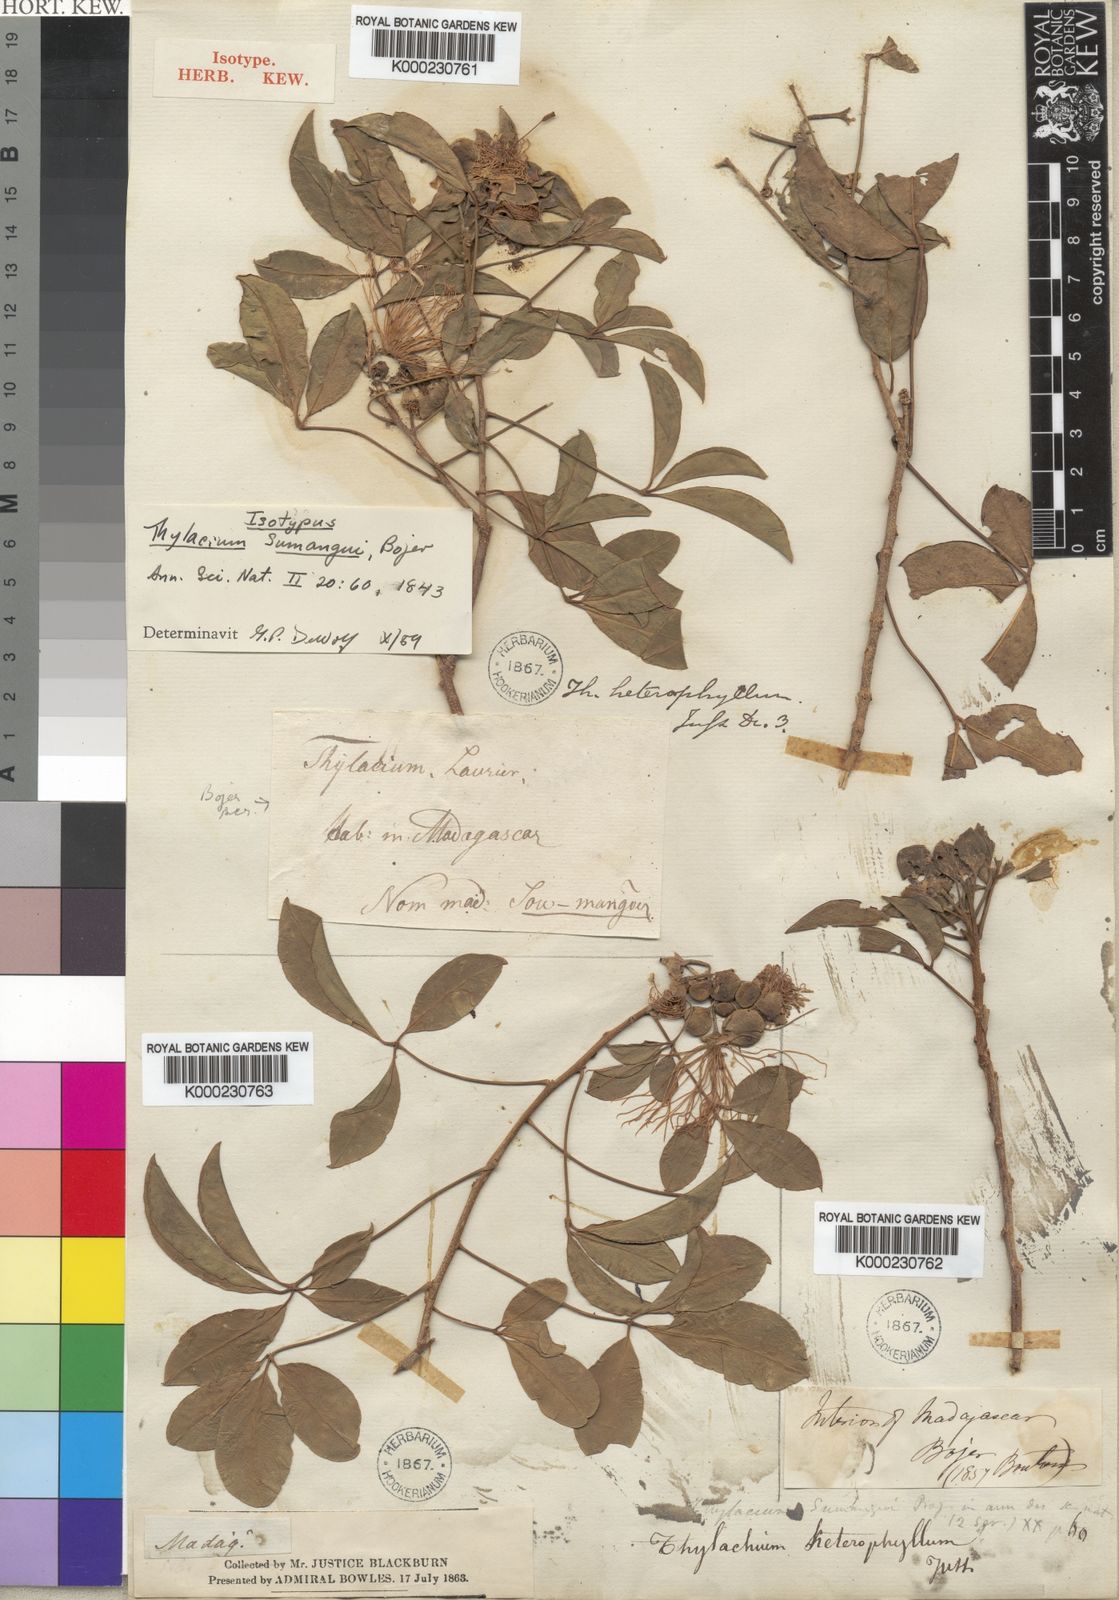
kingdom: Plantae
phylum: Tracheophyta
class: Magnoliopsida
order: Brassicales
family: Capparaceae
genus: Thilachium
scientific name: Thilachium
